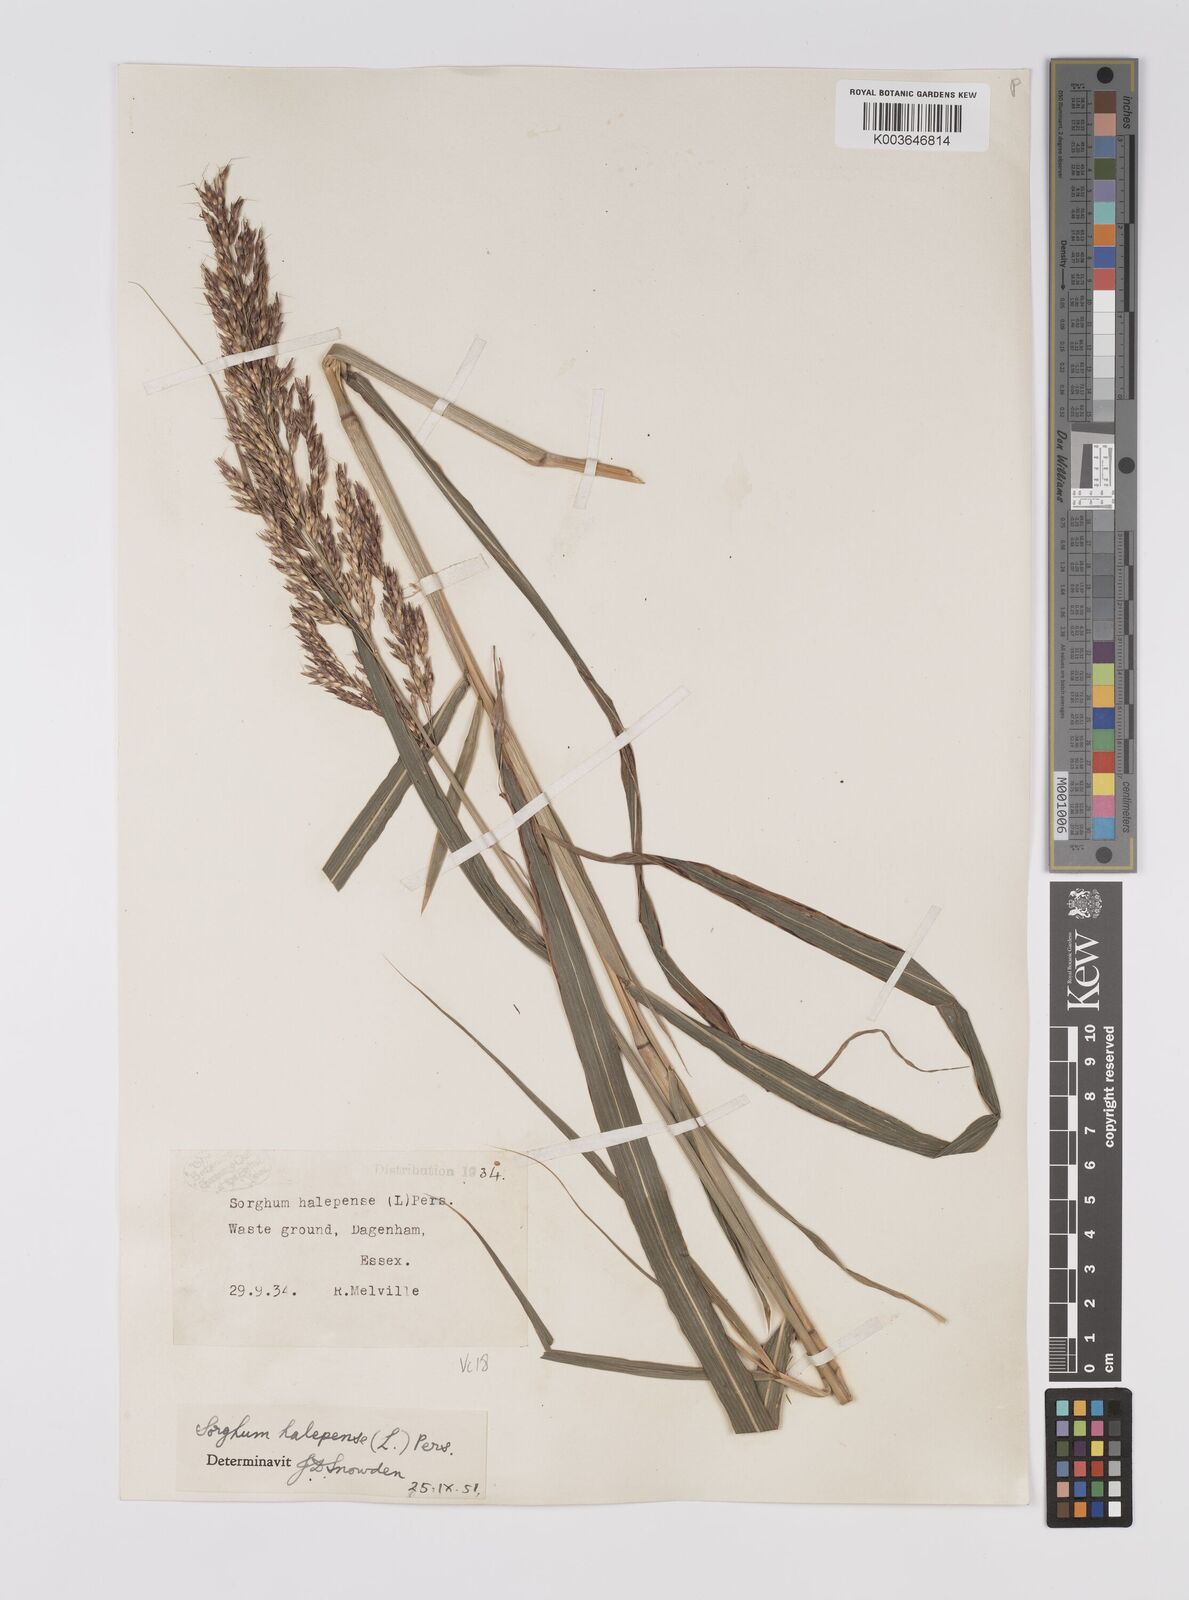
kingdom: Plantae
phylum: Tracheophyta
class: Liliopsida
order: Poales
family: Poaceae
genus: Sorghum
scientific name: Sorghum halepense
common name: Johnson-grass
